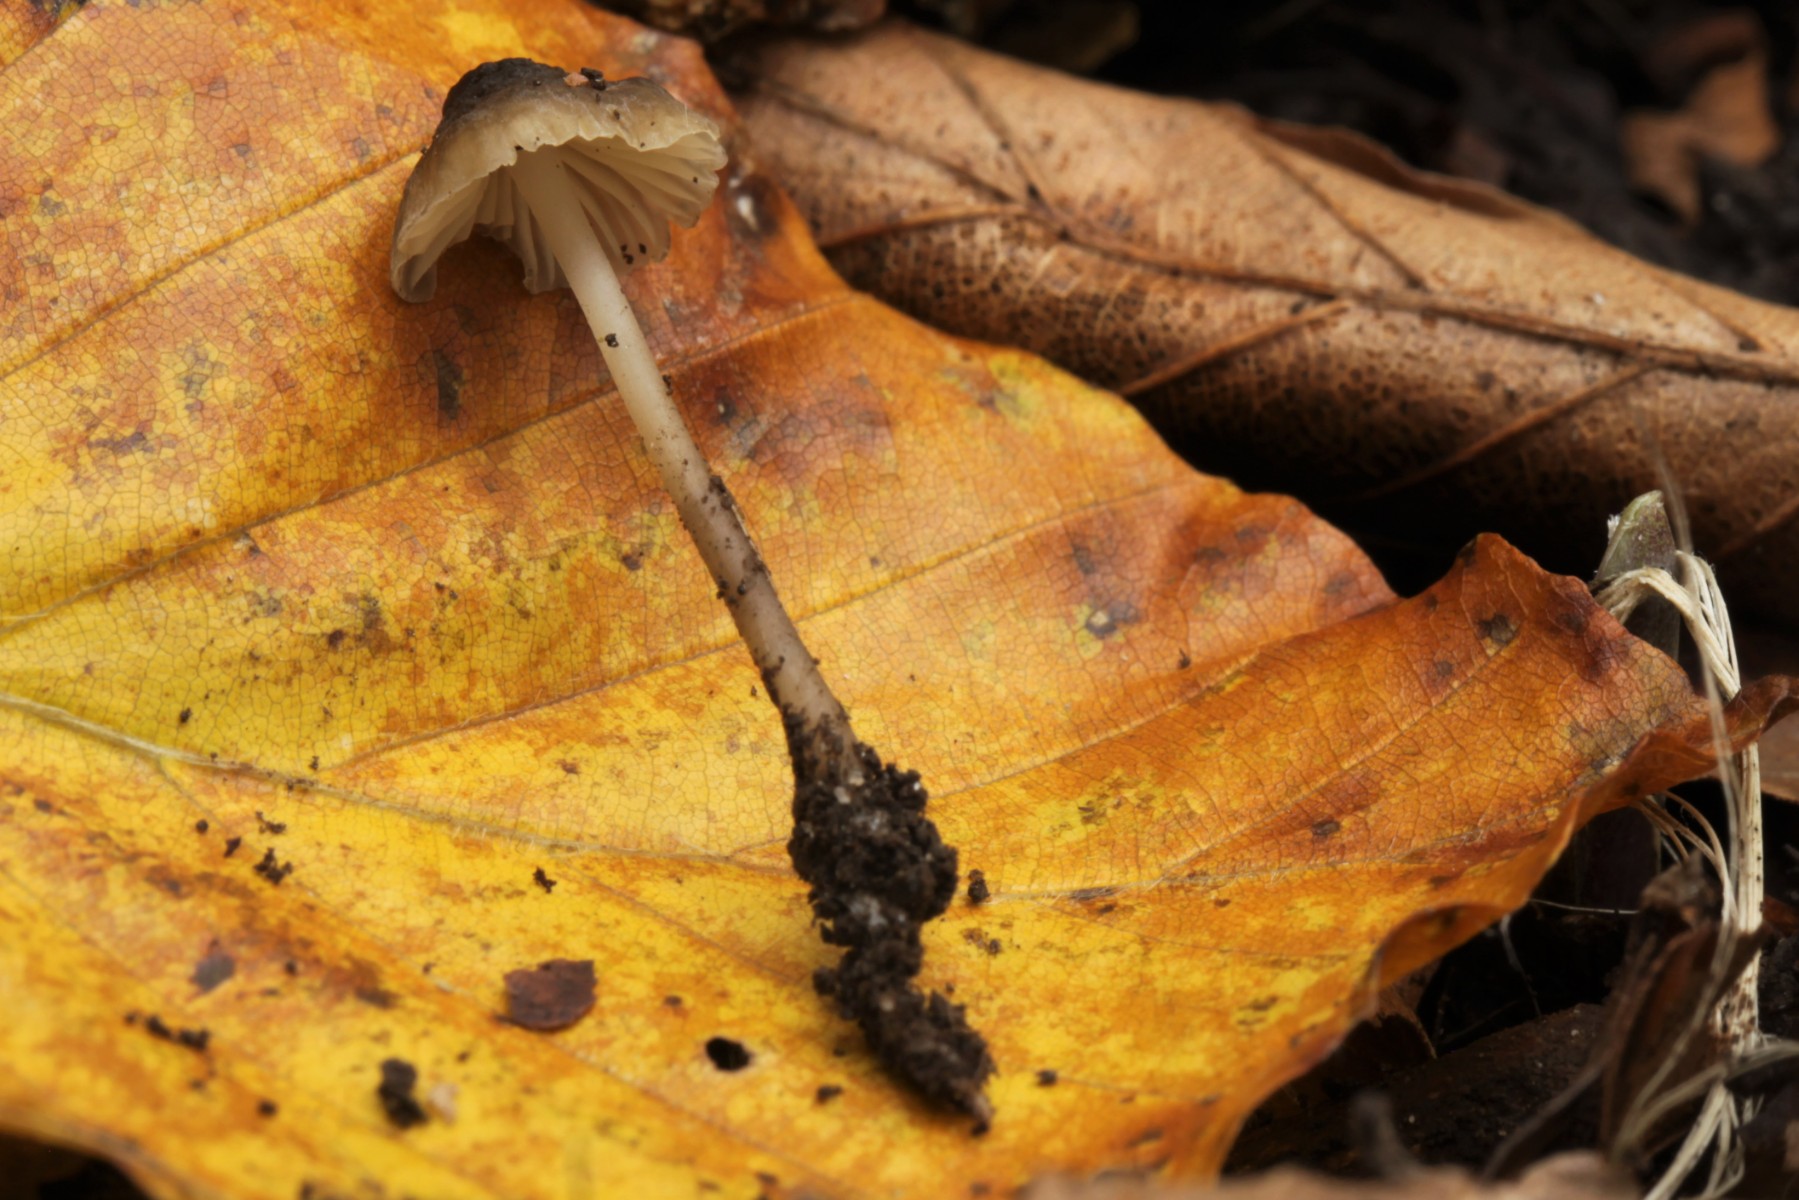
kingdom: Fungi
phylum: Basidiomycota
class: Agaricomycetes
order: Agaricales
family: Porotheleaceae
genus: Phloeomana
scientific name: Phloeomana atropapillata
